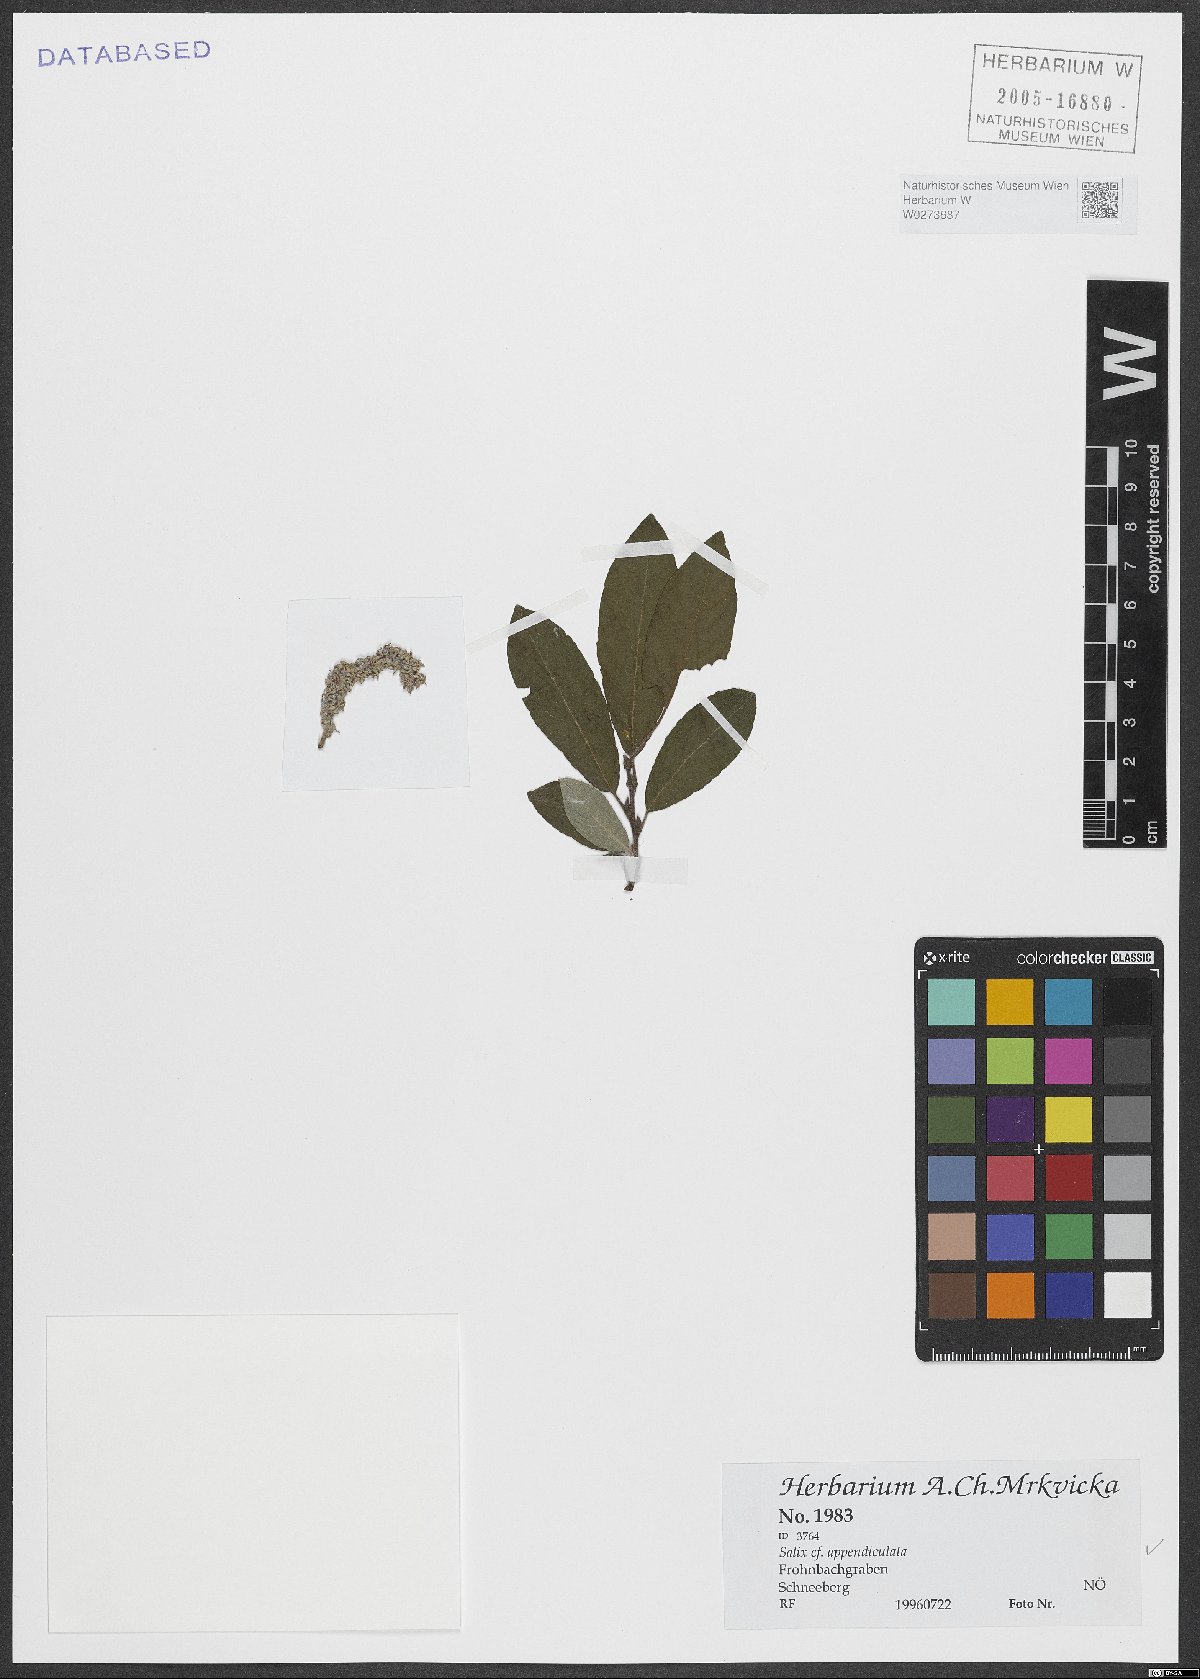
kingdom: Plantae
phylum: Tracheophyta
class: Magnoliopsida
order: Malpighiales
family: Salicaceae
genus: Salix
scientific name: Salix appendiculata
